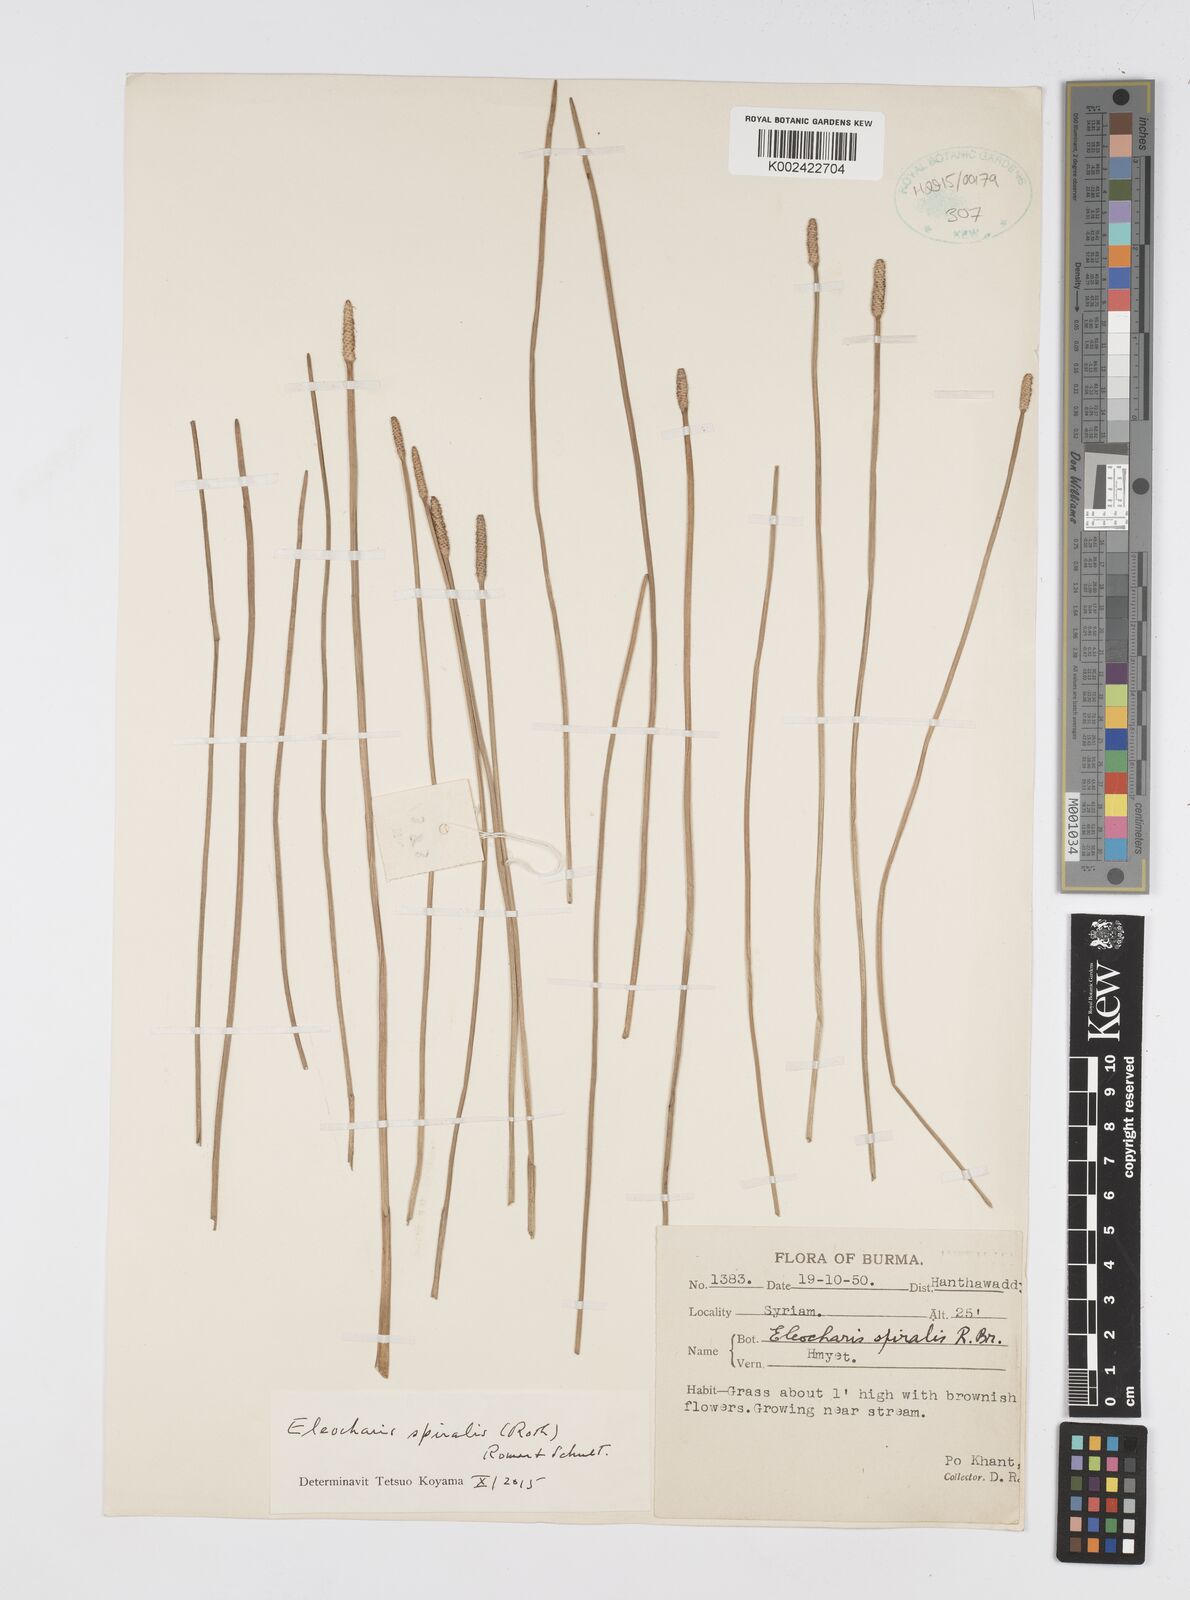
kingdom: Plantae
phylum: Tracheophyta
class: Liliopsida
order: Poales
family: Cyperaceae
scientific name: Cyperaceae
